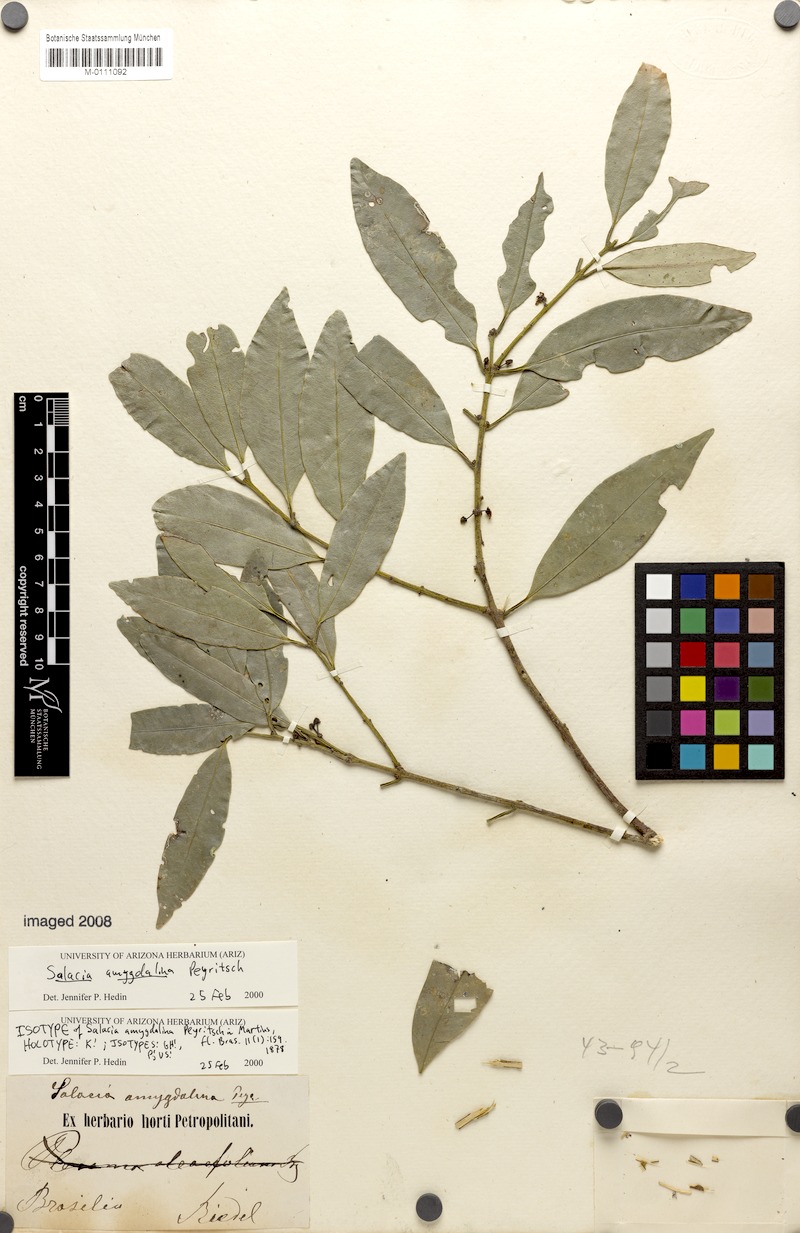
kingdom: Plantae
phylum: Tracheophyta
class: Magnoliopsida
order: Celastrales
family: Celastraceae
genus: Salacia
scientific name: Salacia elliptica
